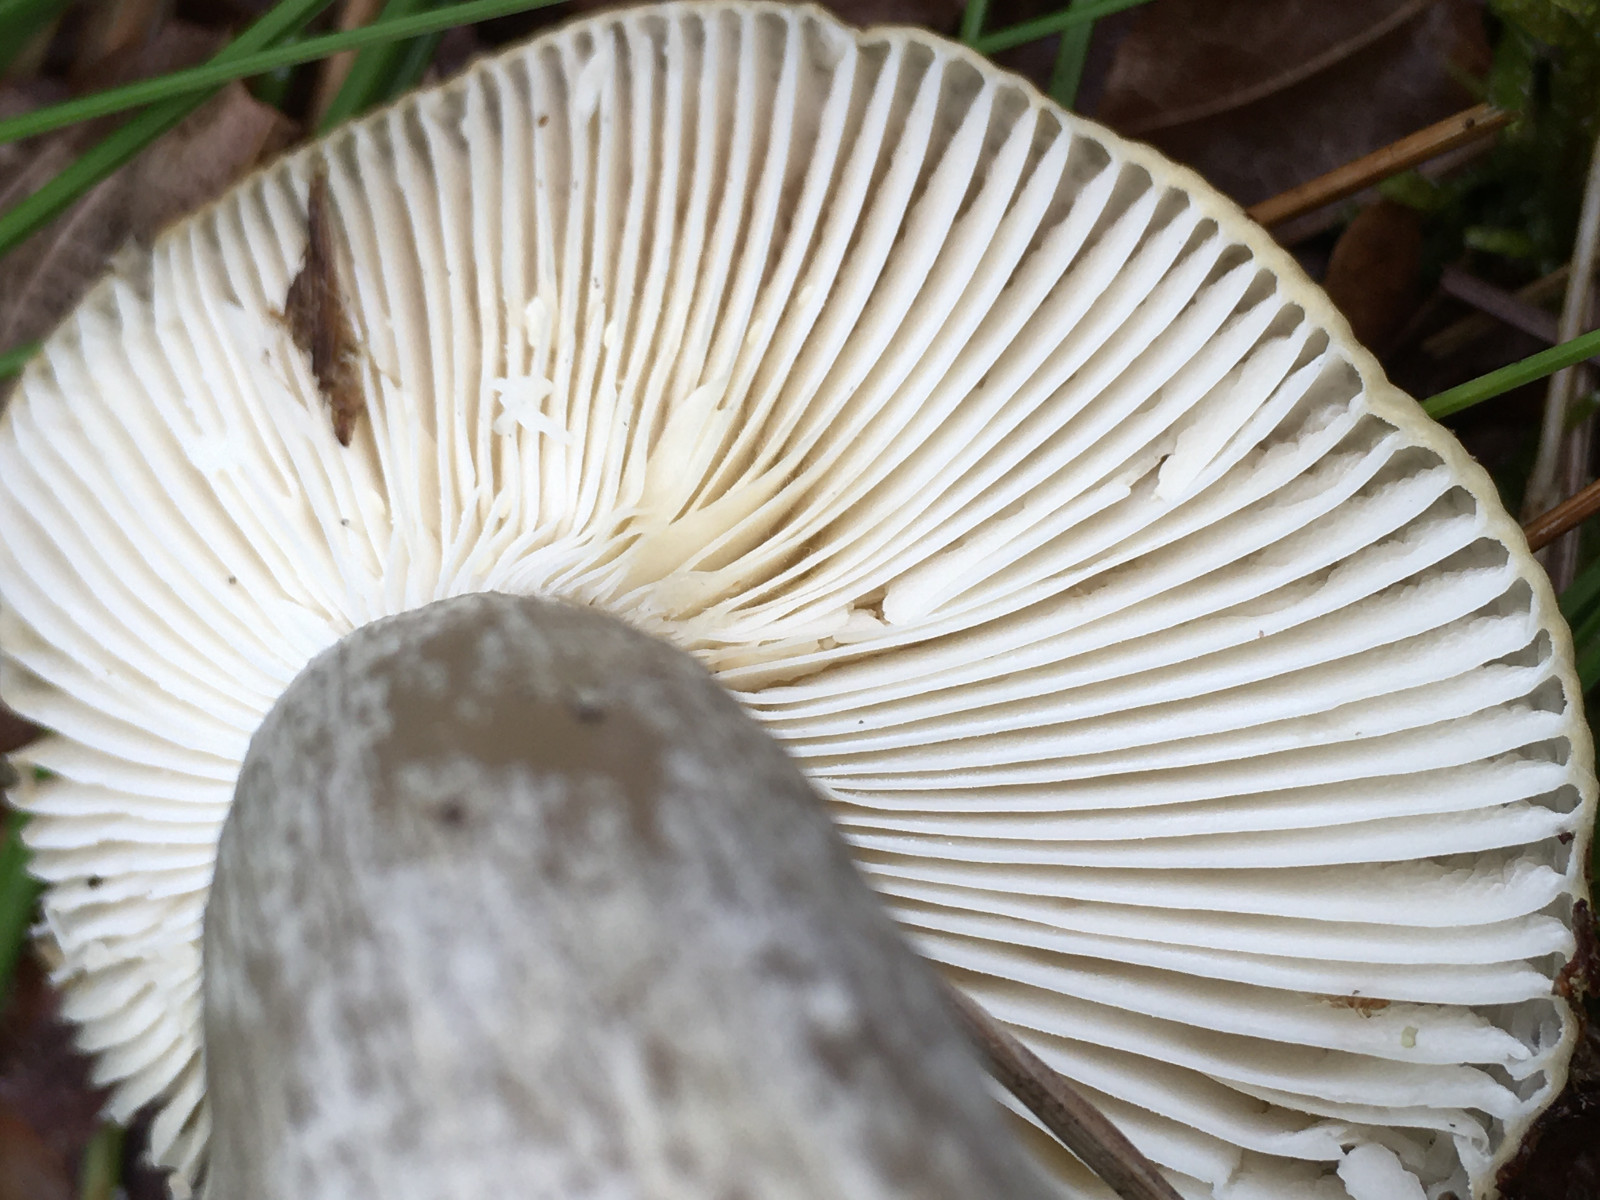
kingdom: Fungi
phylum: Basidiomycota
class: Agaricomycetes
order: Russulales
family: Russulaceae
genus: Russula
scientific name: Russula ochroleuca
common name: okkergul skørhat
